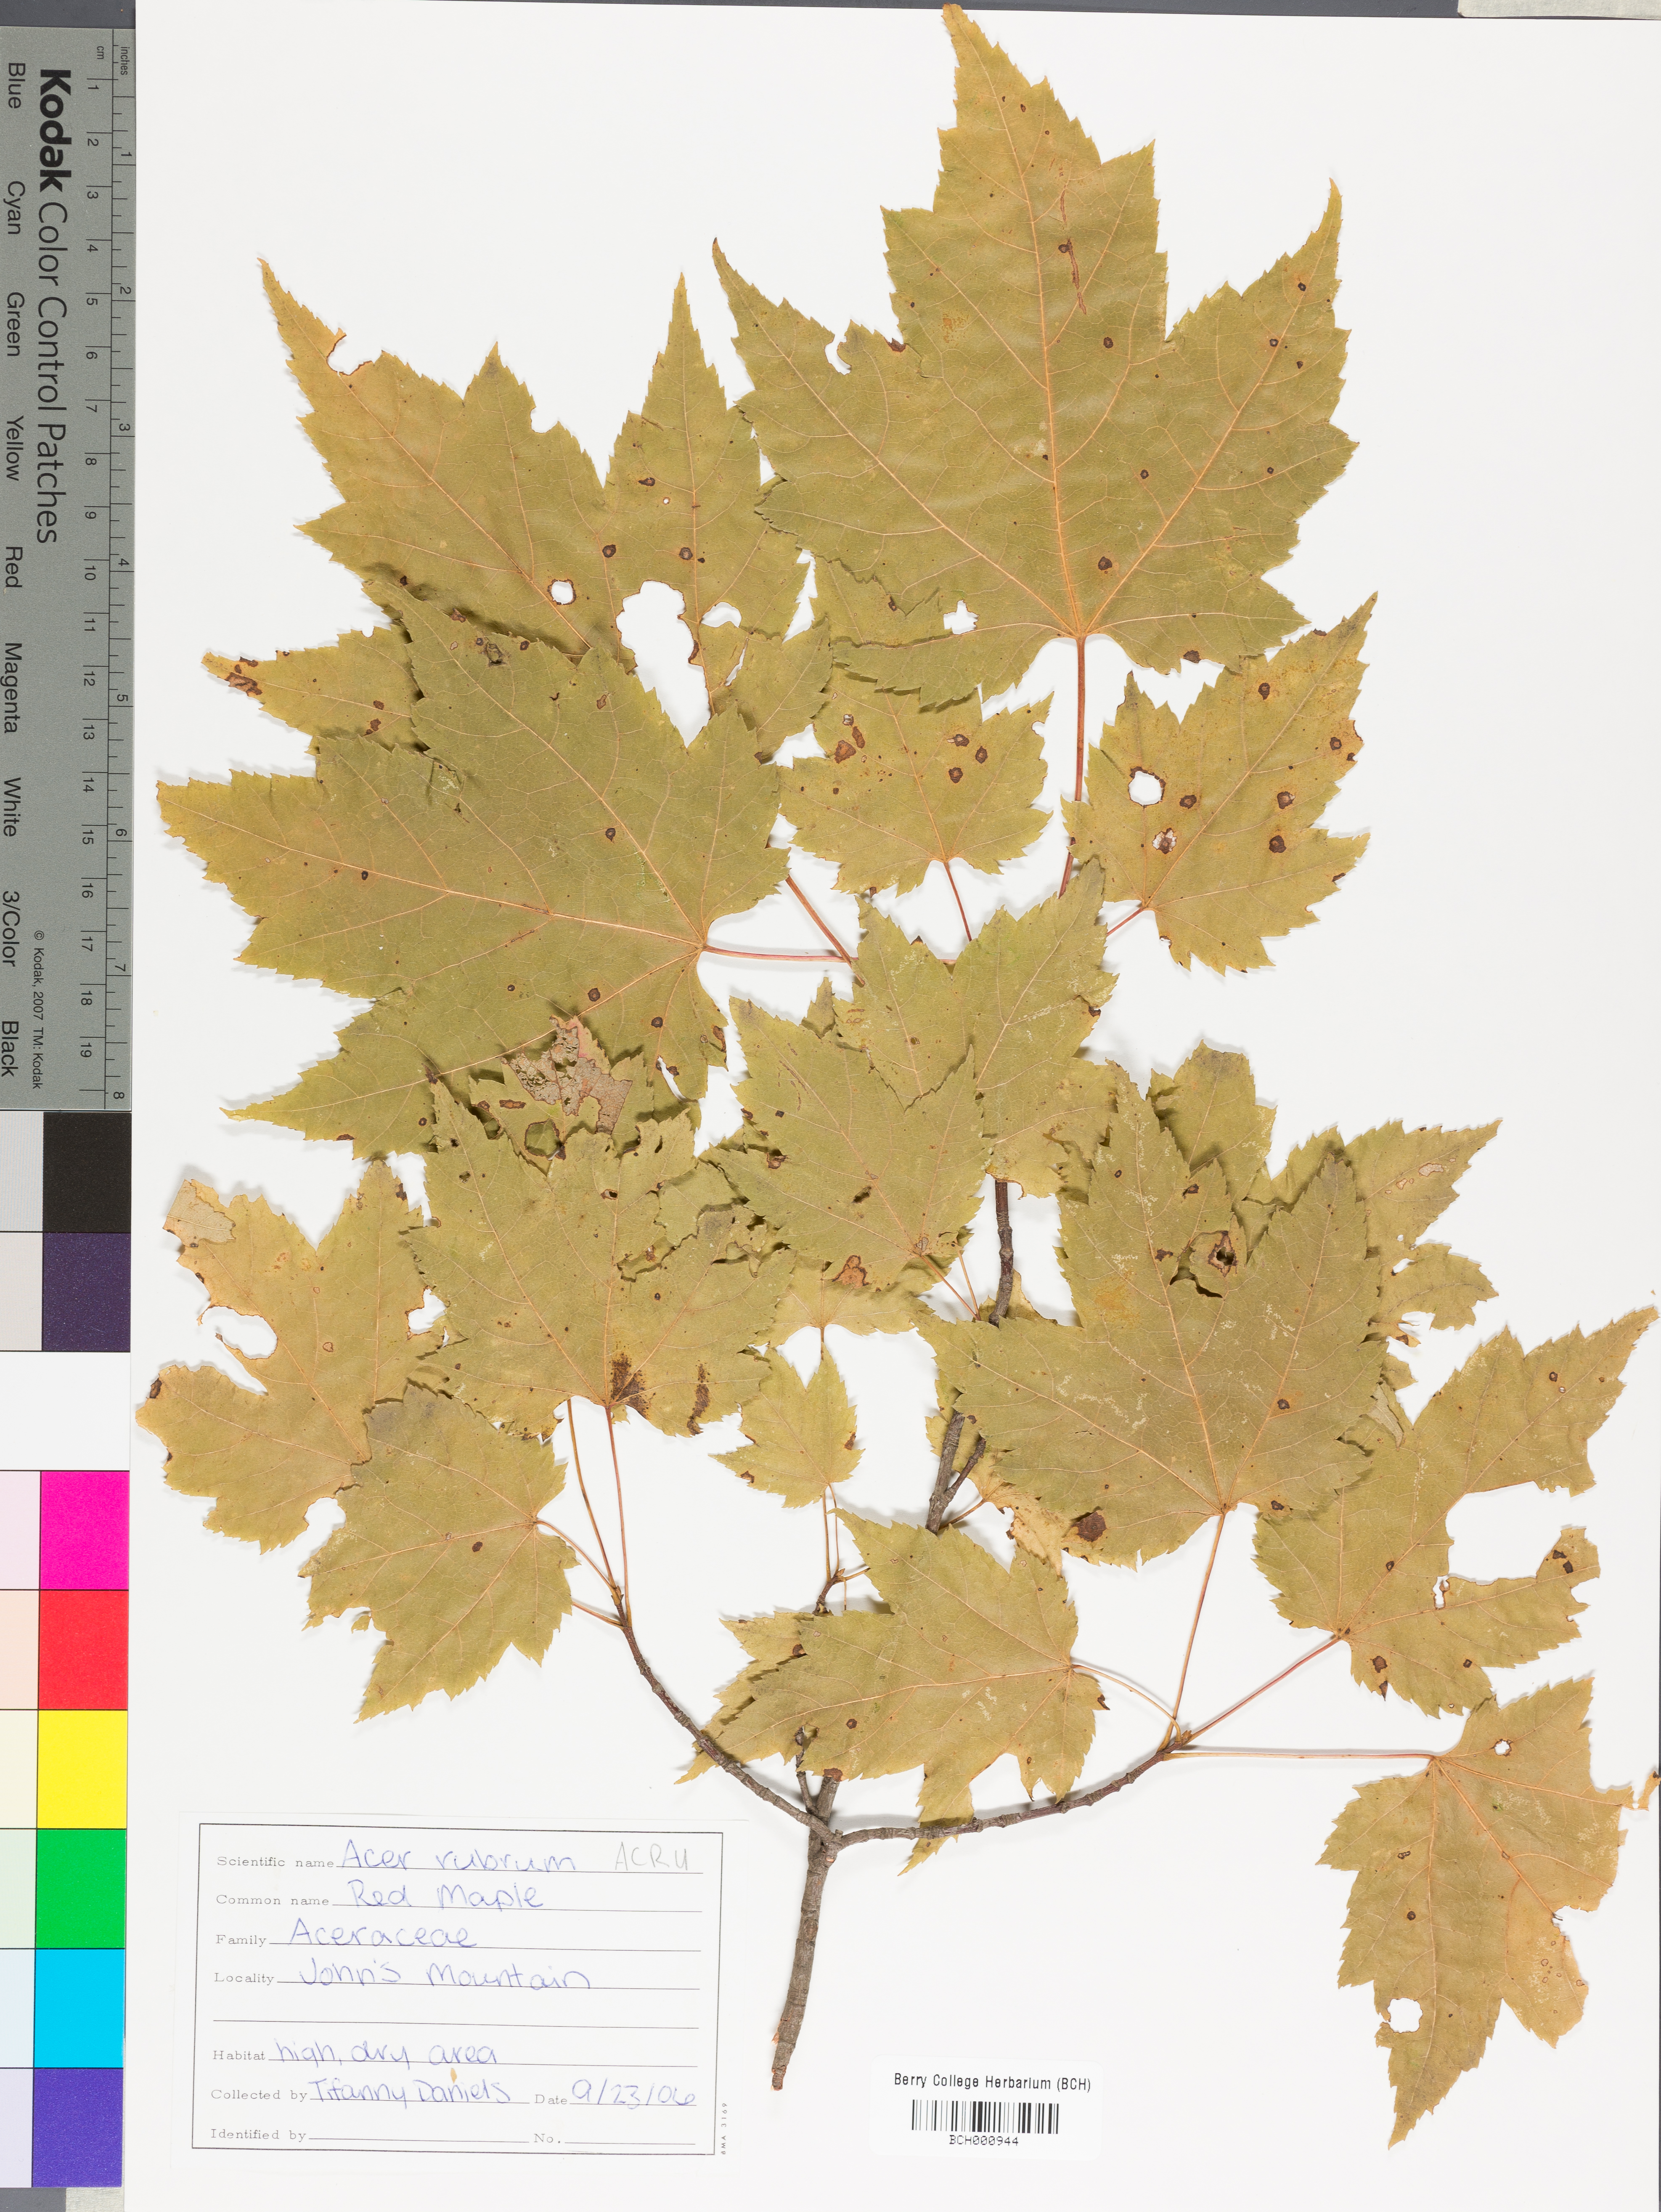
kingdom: Plantae
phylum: Tracheophyta
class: Magnoliopsida
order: Sapindales
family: Sapindaceae
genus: Acer
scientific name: Acer rubrum
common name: Red maple
